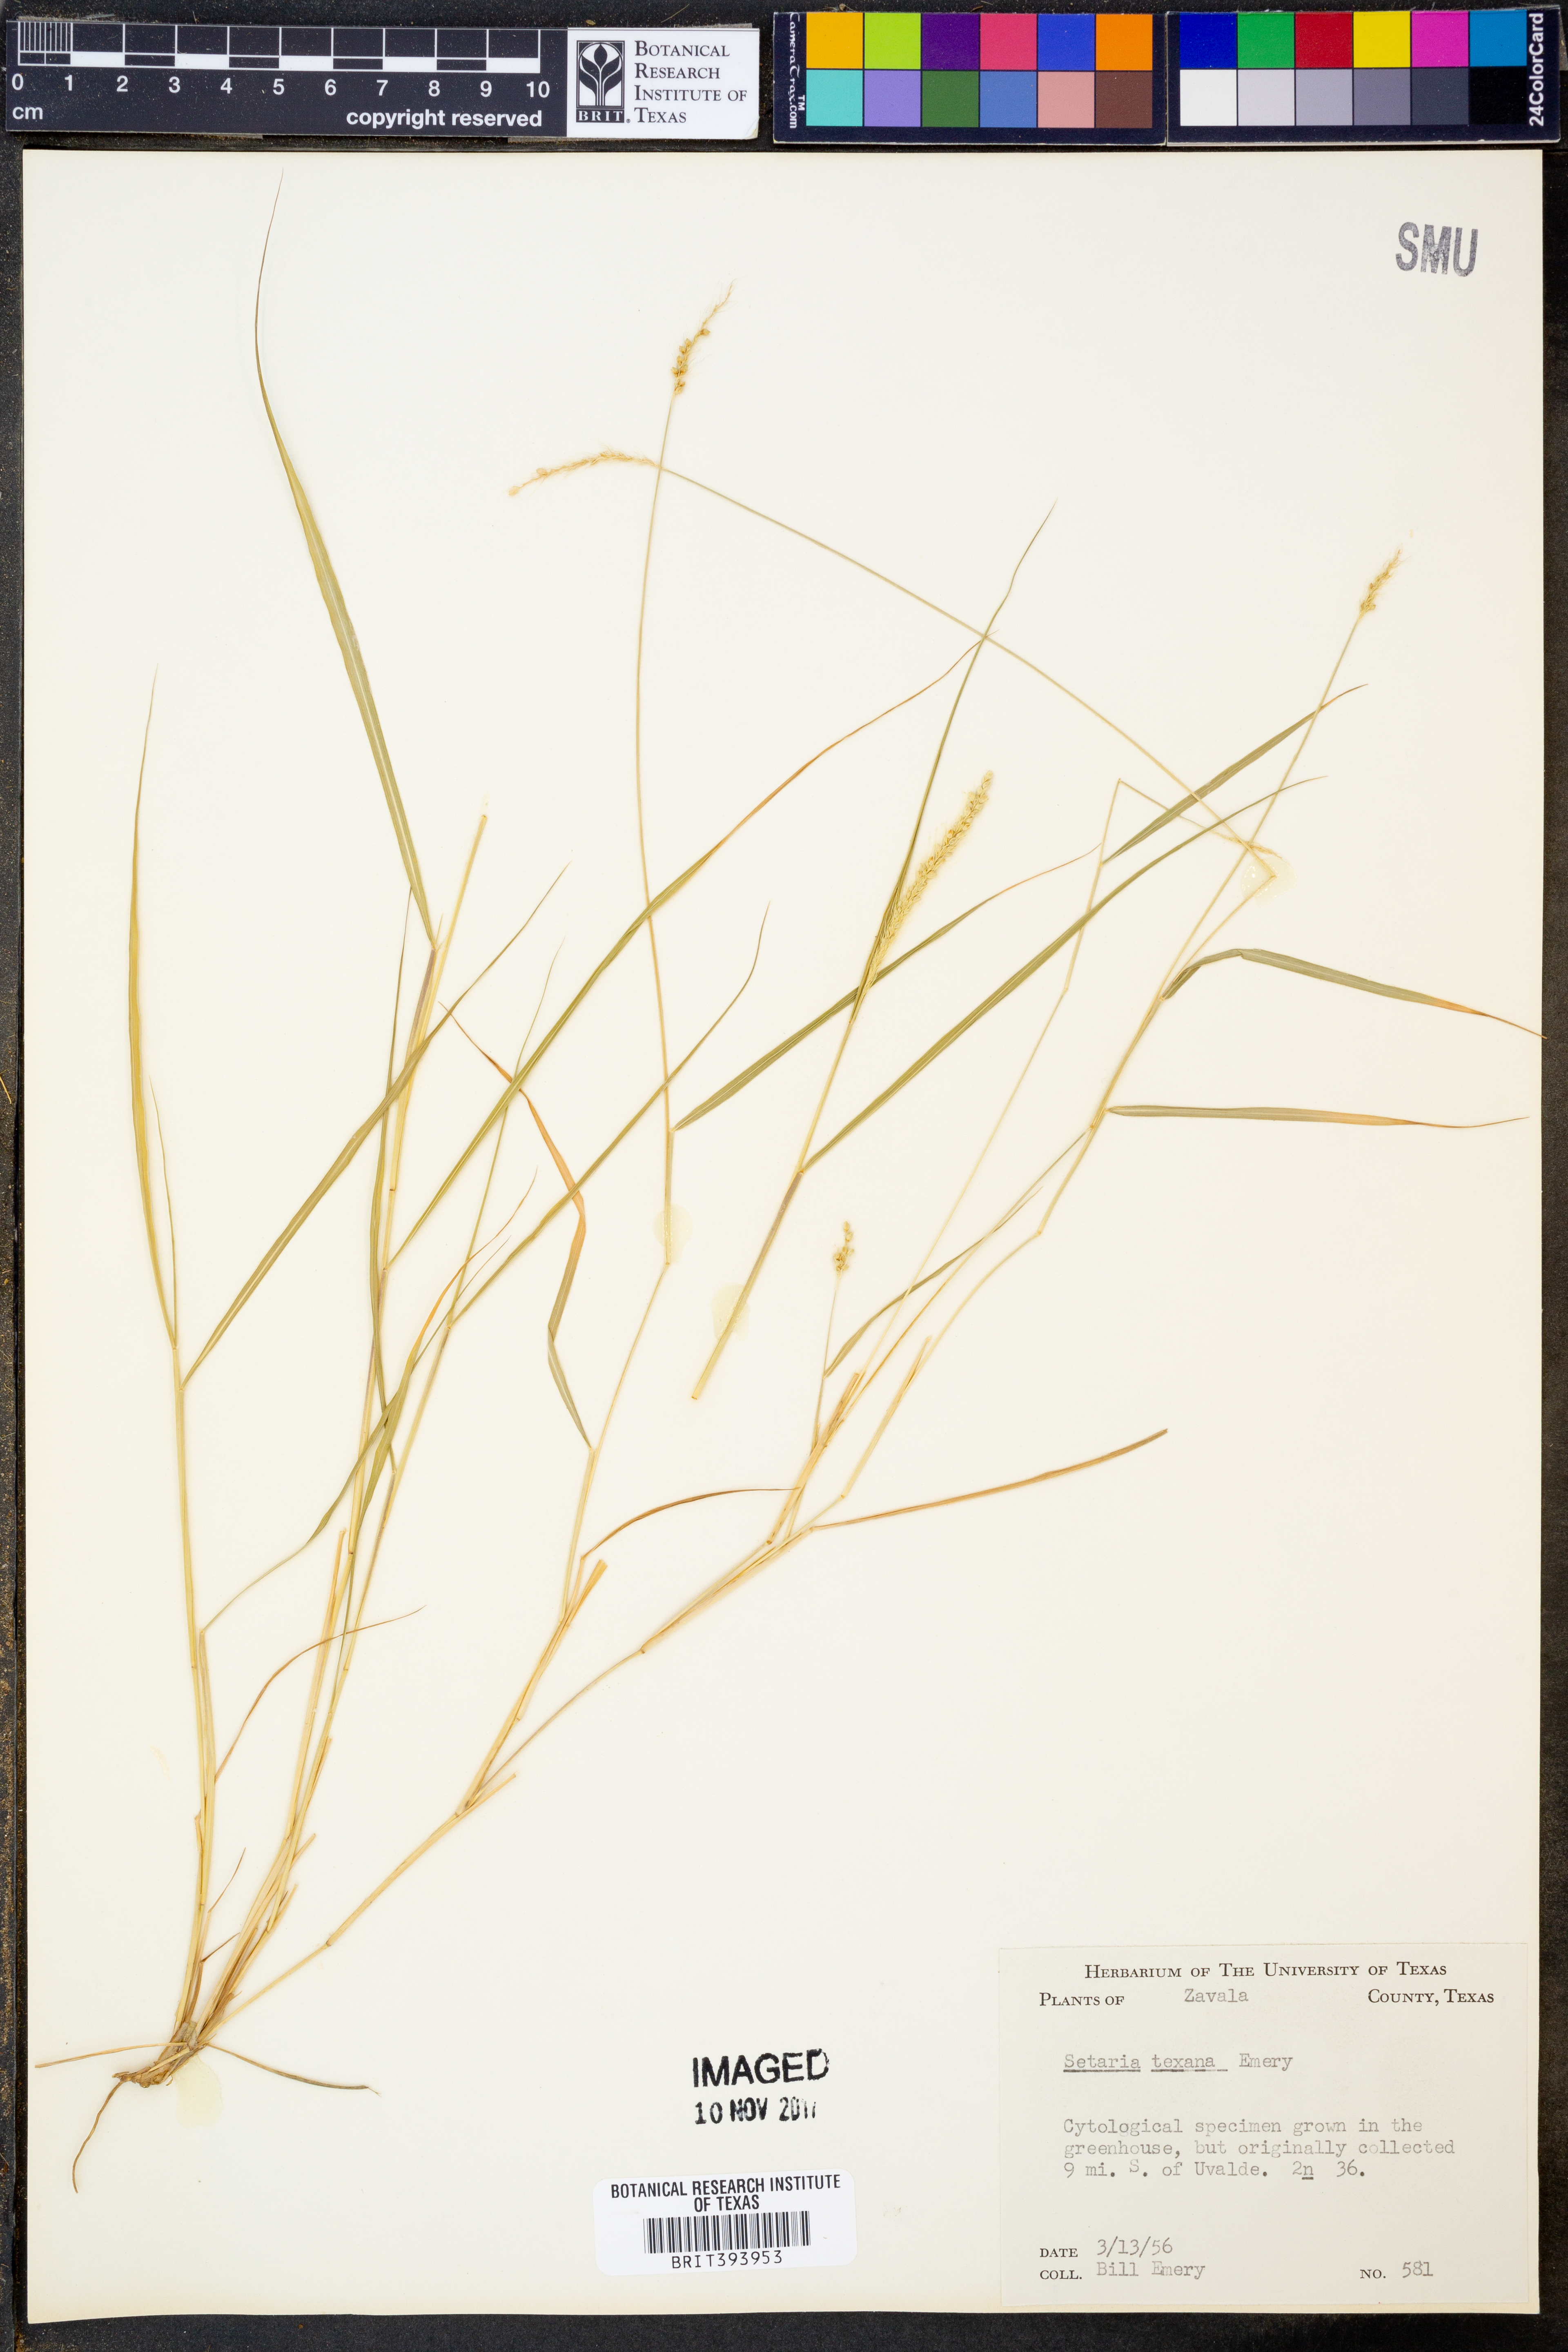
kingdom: Plantae
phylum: Tracheophyta
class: Liliopsida
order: Poales
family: Poaceae
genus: Setaria
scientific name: Setaria texana
